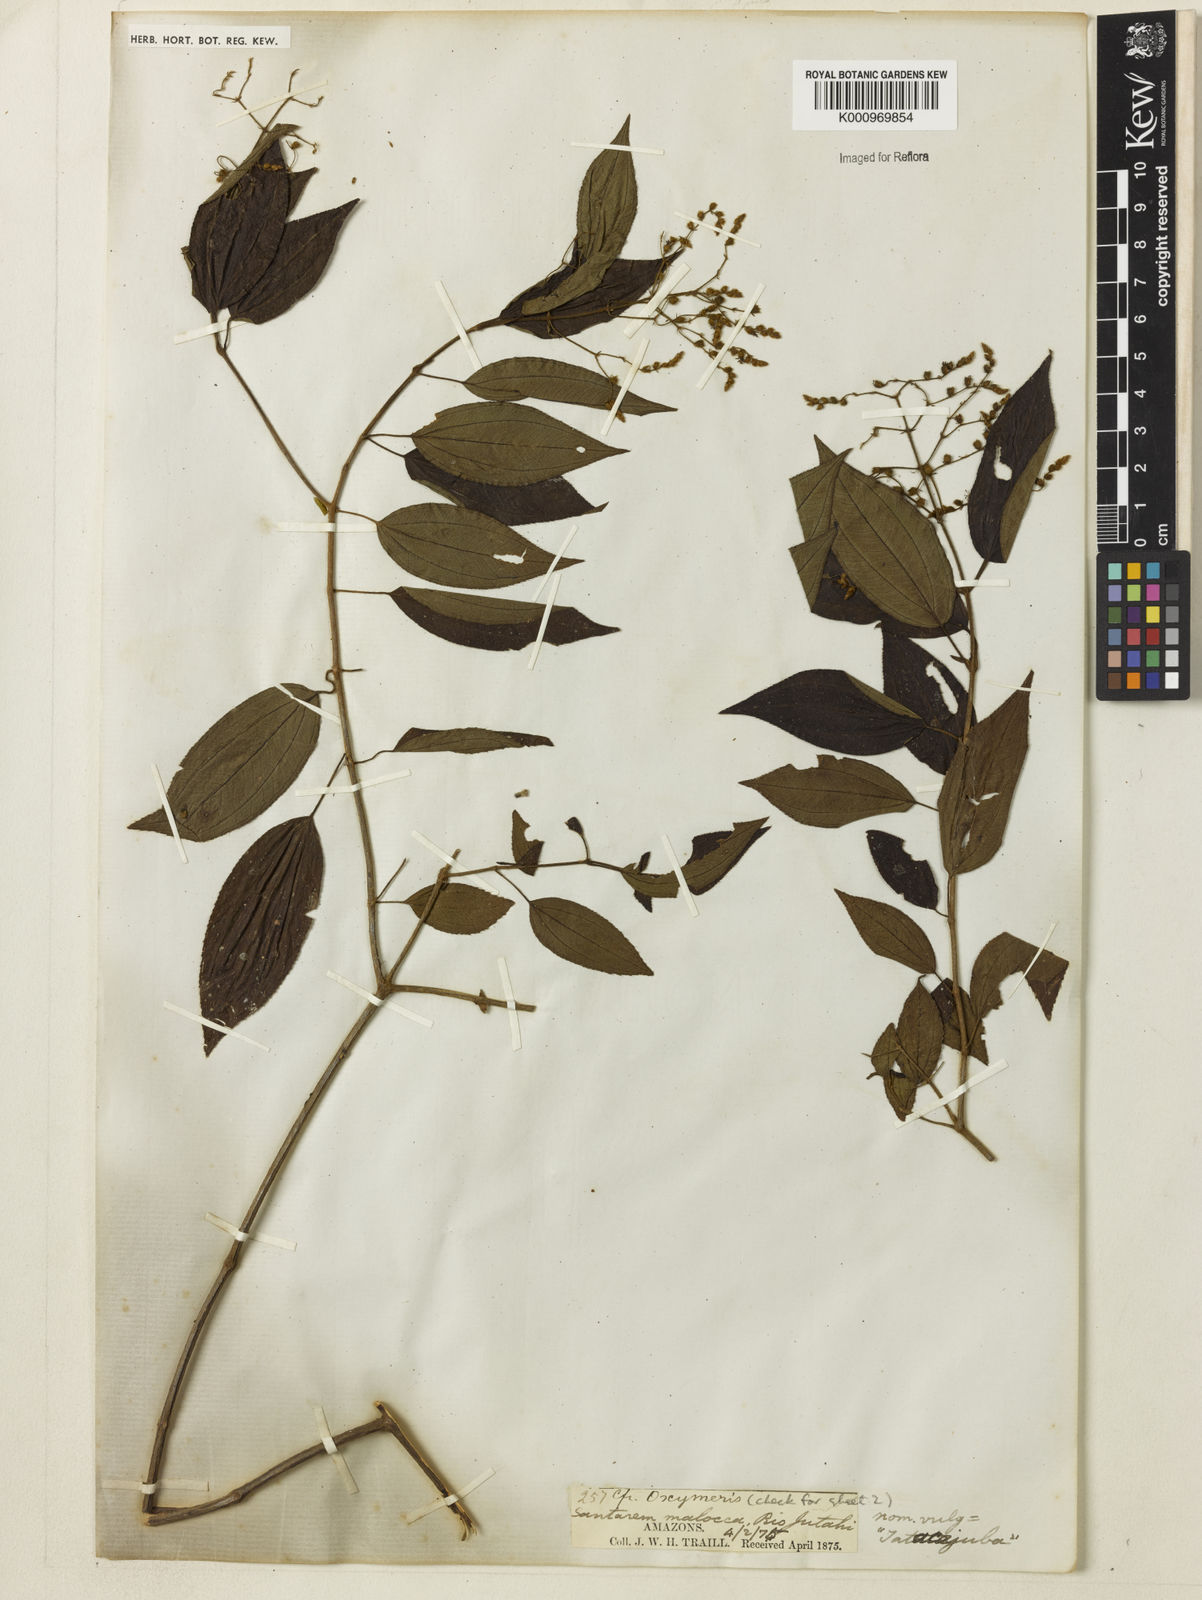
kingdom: Plantae
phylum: Tracheophyta
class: Magnoliopsida
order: Myrtales
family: Melastomataceae
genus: Miconia
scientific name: Miconia
